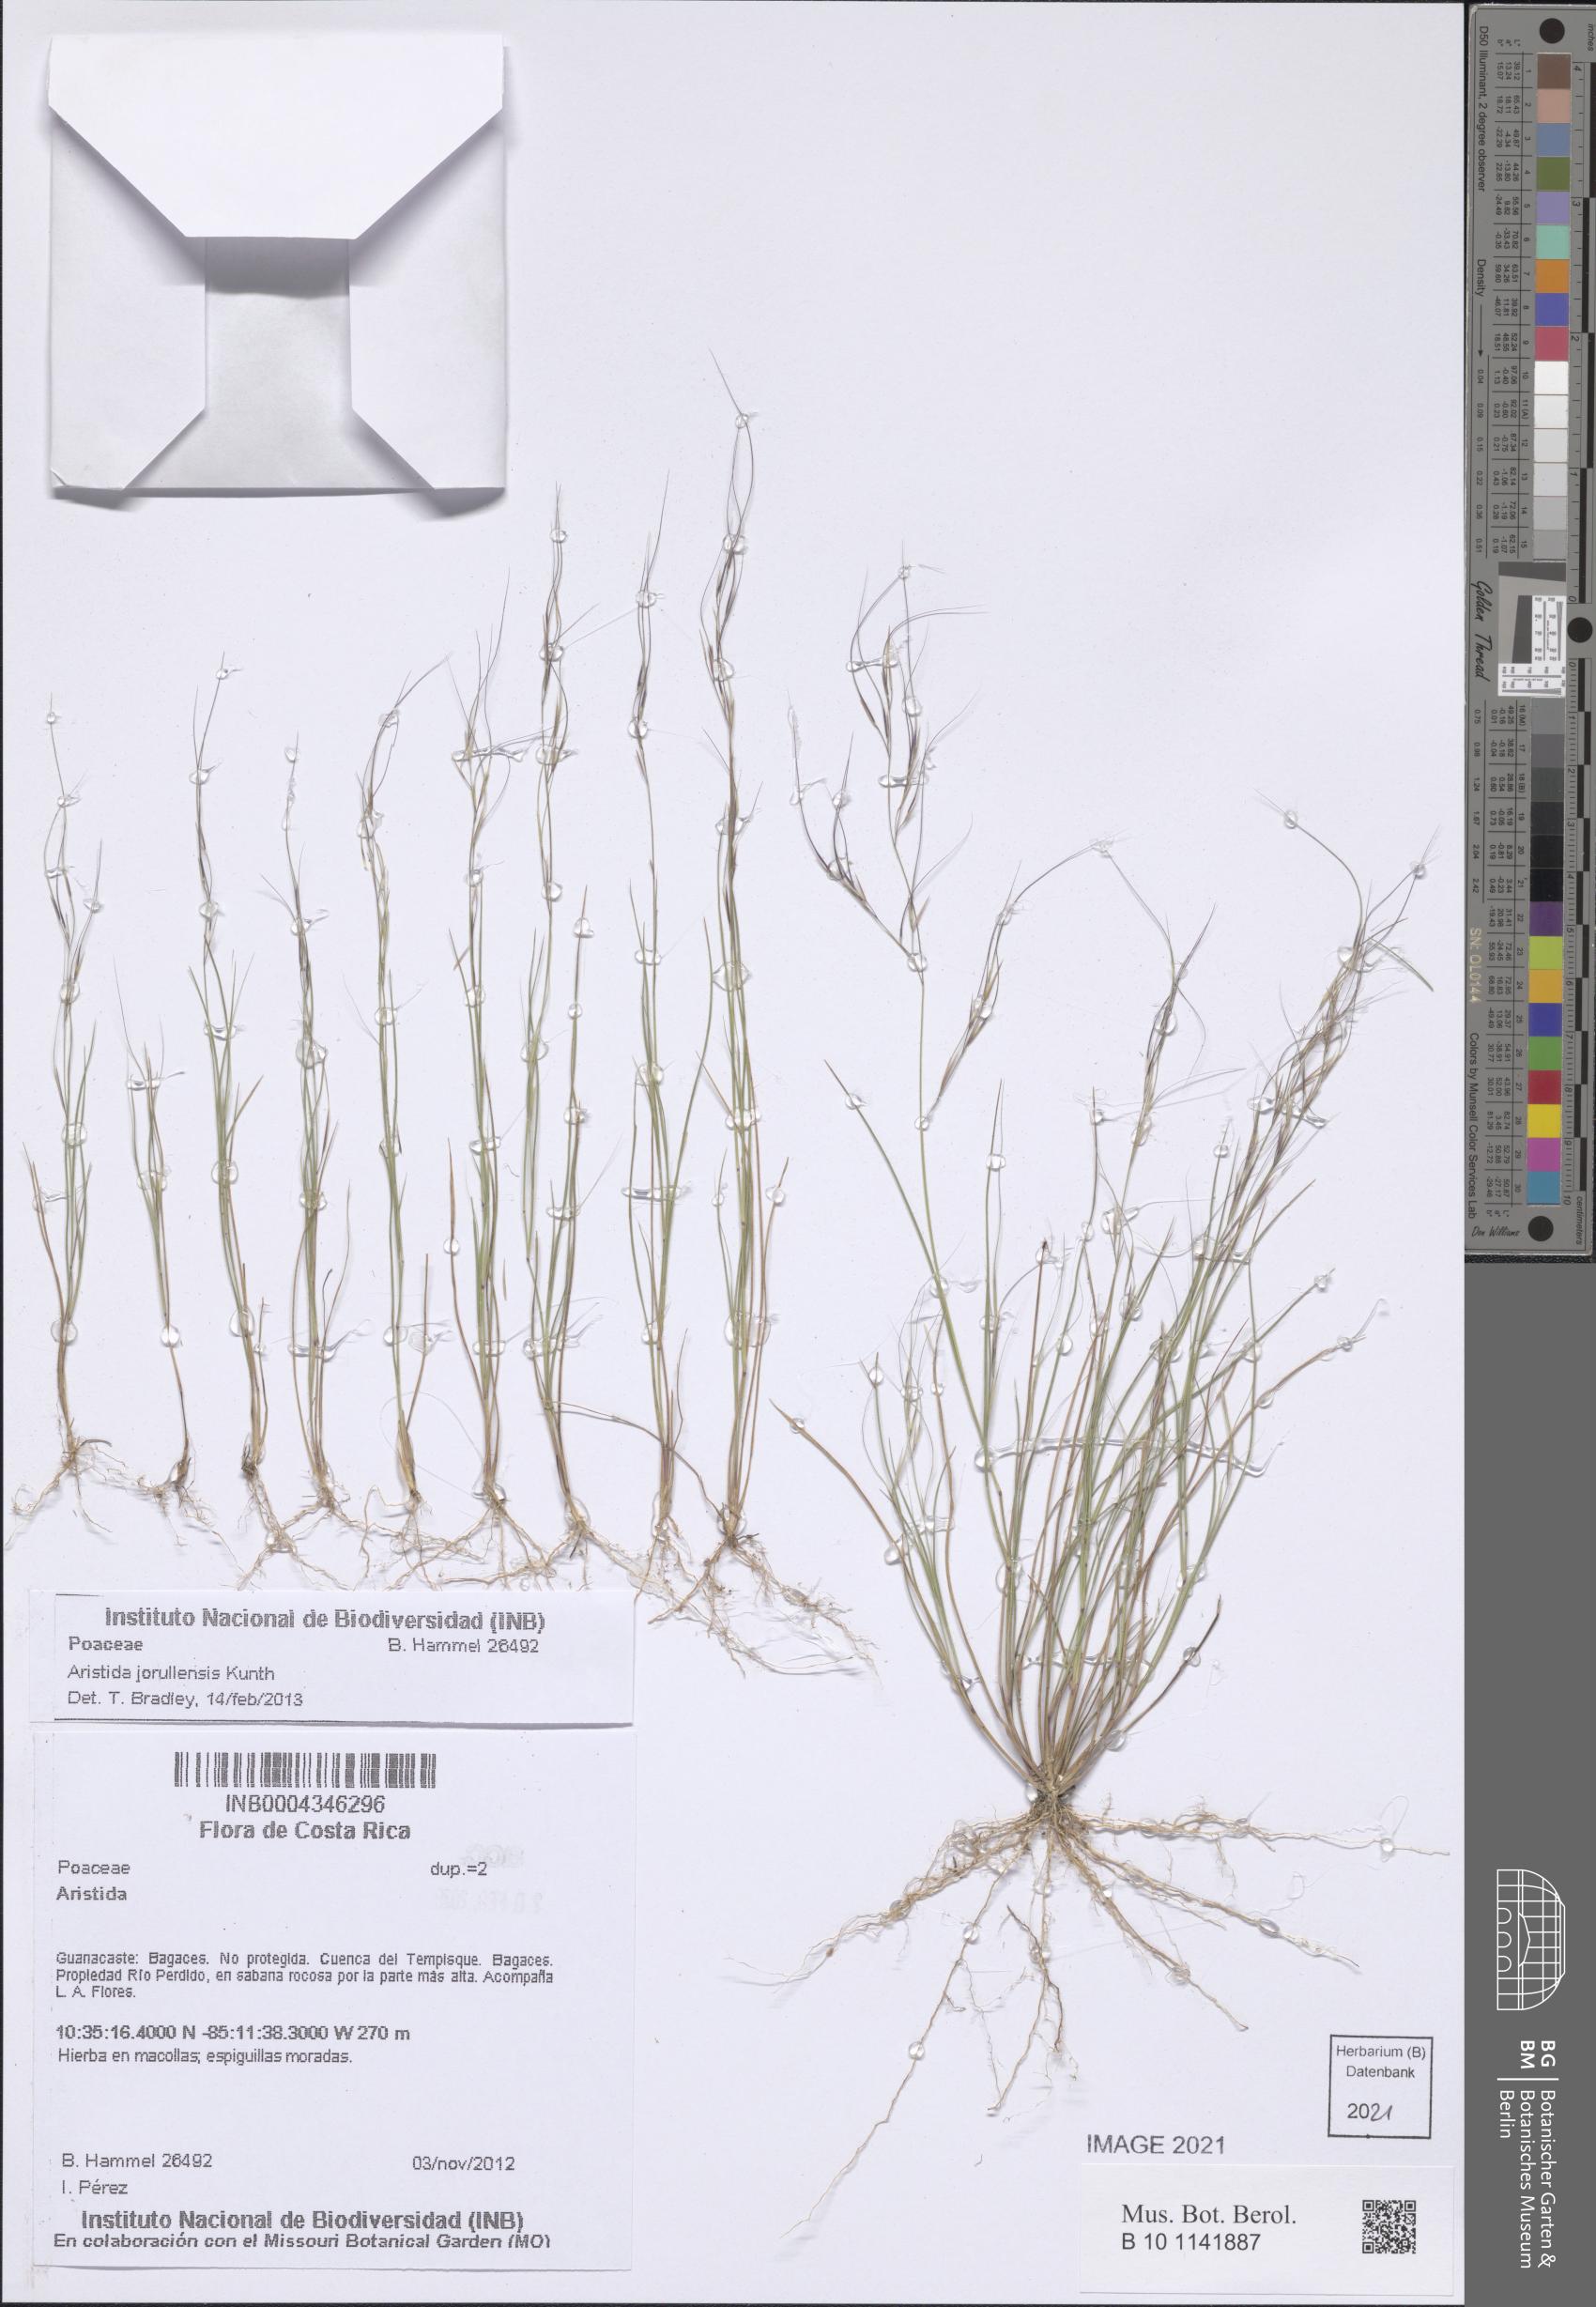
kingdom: Plantae
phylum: Tracheophyta
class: Liliopsida
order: Poales
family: Poaceae
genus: Aristida
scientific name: Aristida jorullensis
